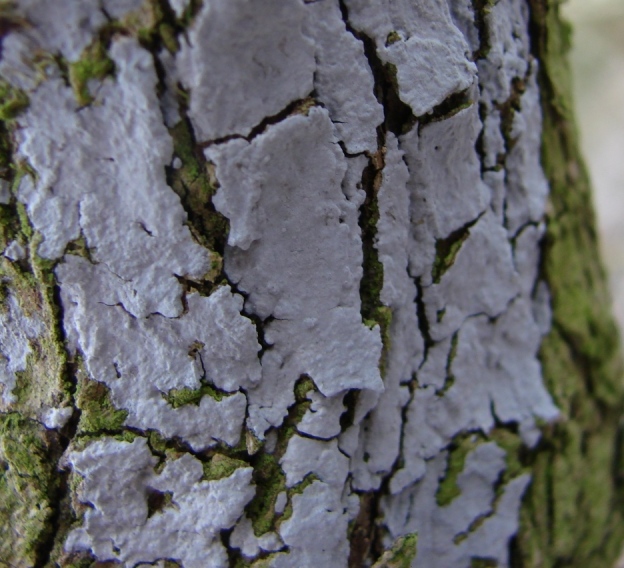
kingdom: Fungi
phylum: Basidiomycota
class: Agaricomycetes
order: Russulales
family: Peniophoraceae
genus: Peniophora
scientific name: Peniophora lycii
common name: grynet voksskind
